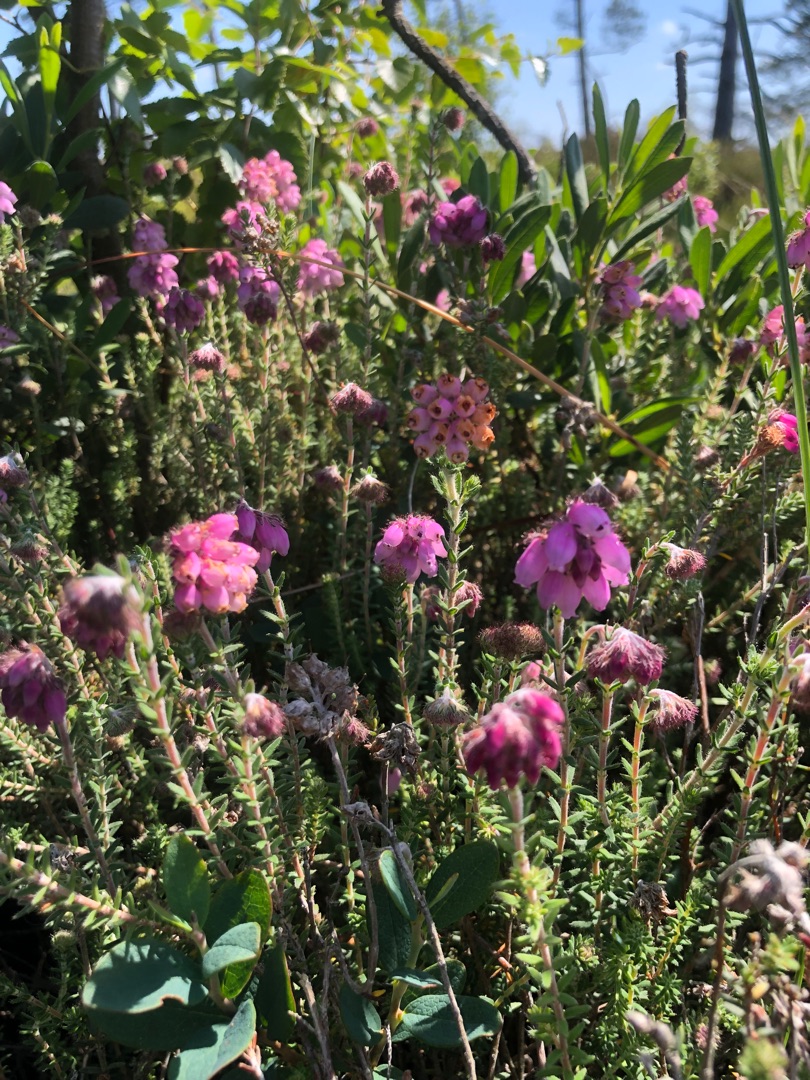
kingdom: Plantae
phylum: Tracheophyta
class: Magnoliopsida
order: Ericales
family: Ericaceae
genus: Erica
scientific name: Erica tetralix
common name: Klokkelyng
